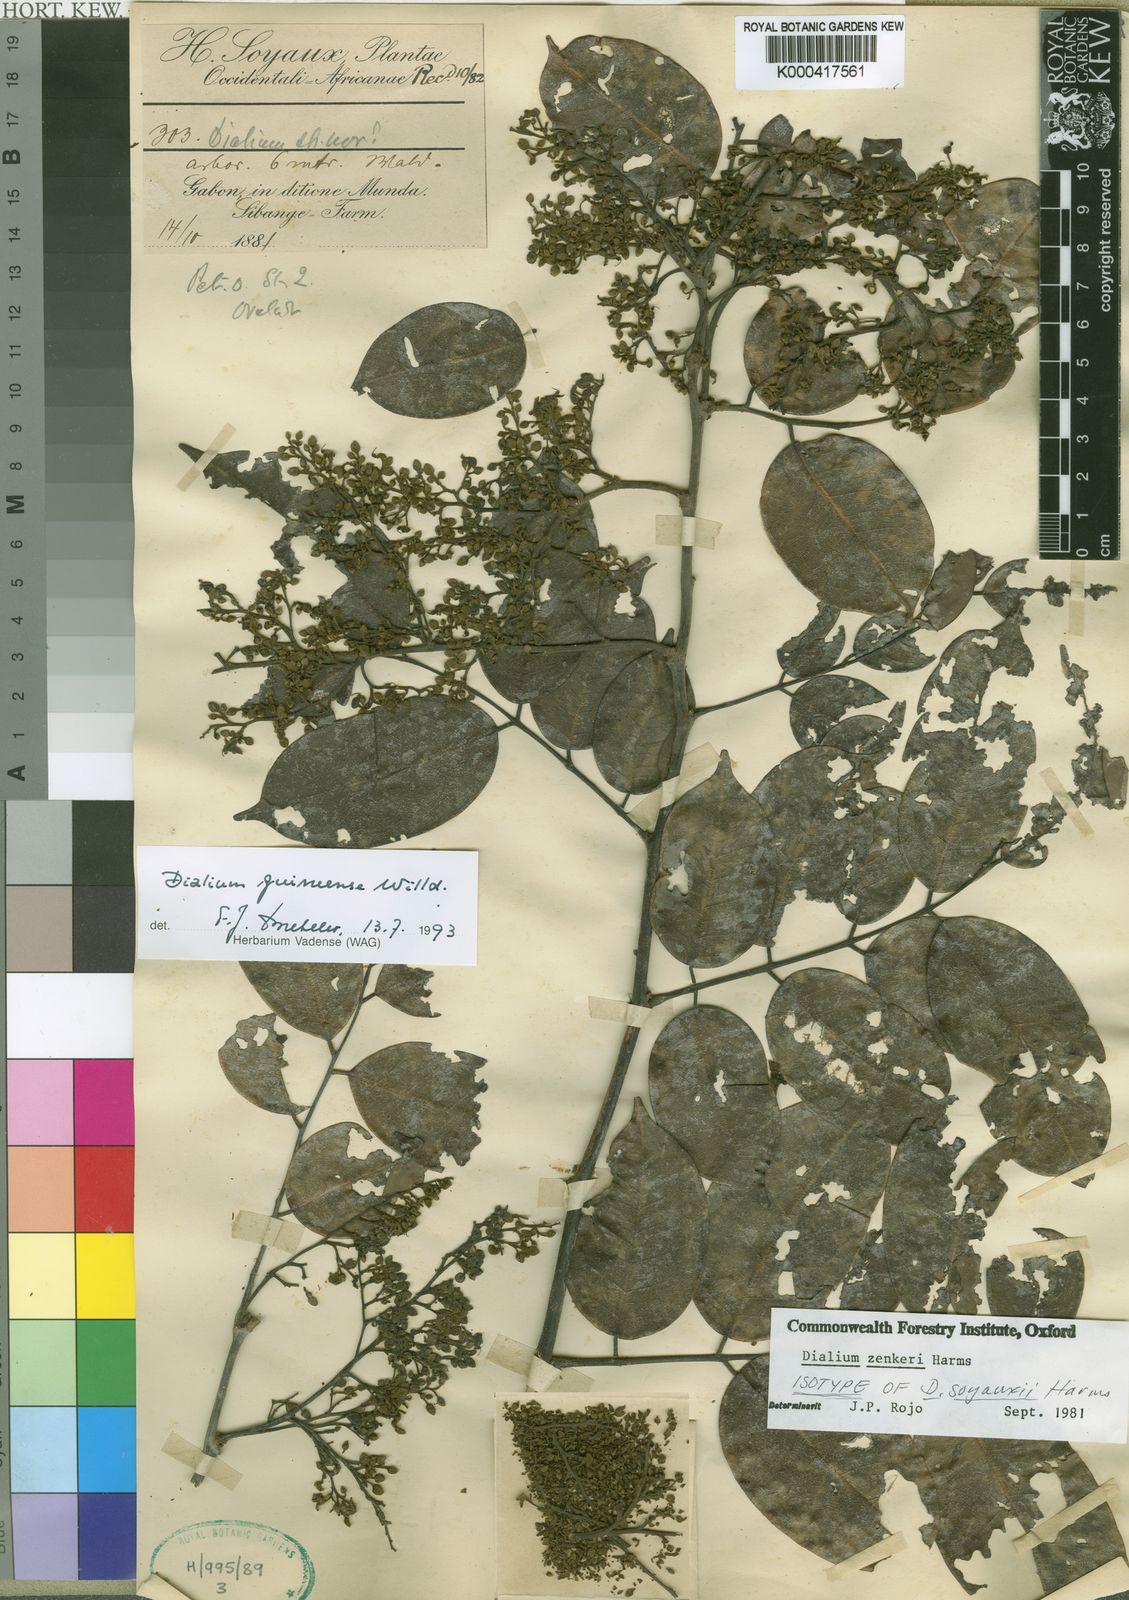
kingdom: Plantae
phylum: Tracheophyta
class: Magnoliopsida
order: Fabales
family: Fabaceae
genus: Dialium
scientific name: Dialium guineense
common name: Sierra leone-tamarind
